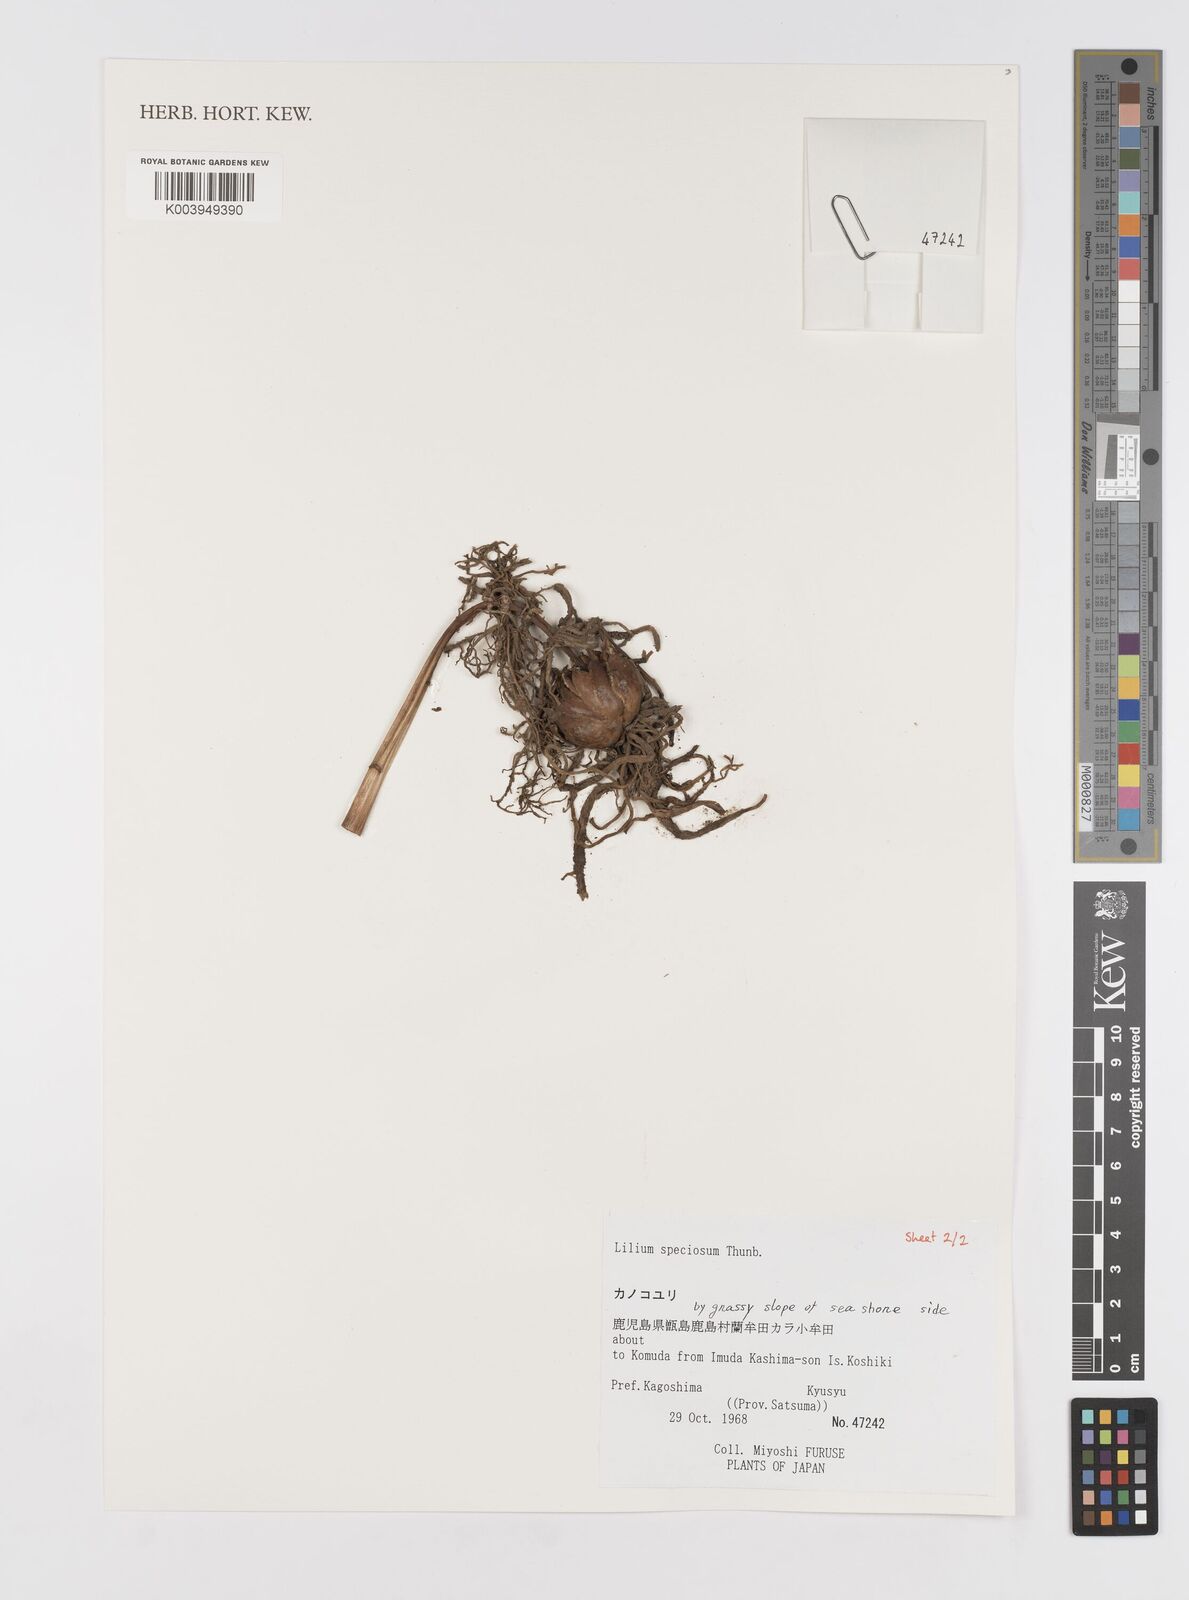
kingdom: Plantae
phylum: Tracheophyta
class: Liliopsida
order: Liliales
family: Liliaceae
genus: Lilium
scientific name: Lilium speciosum
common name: Japanese lily
